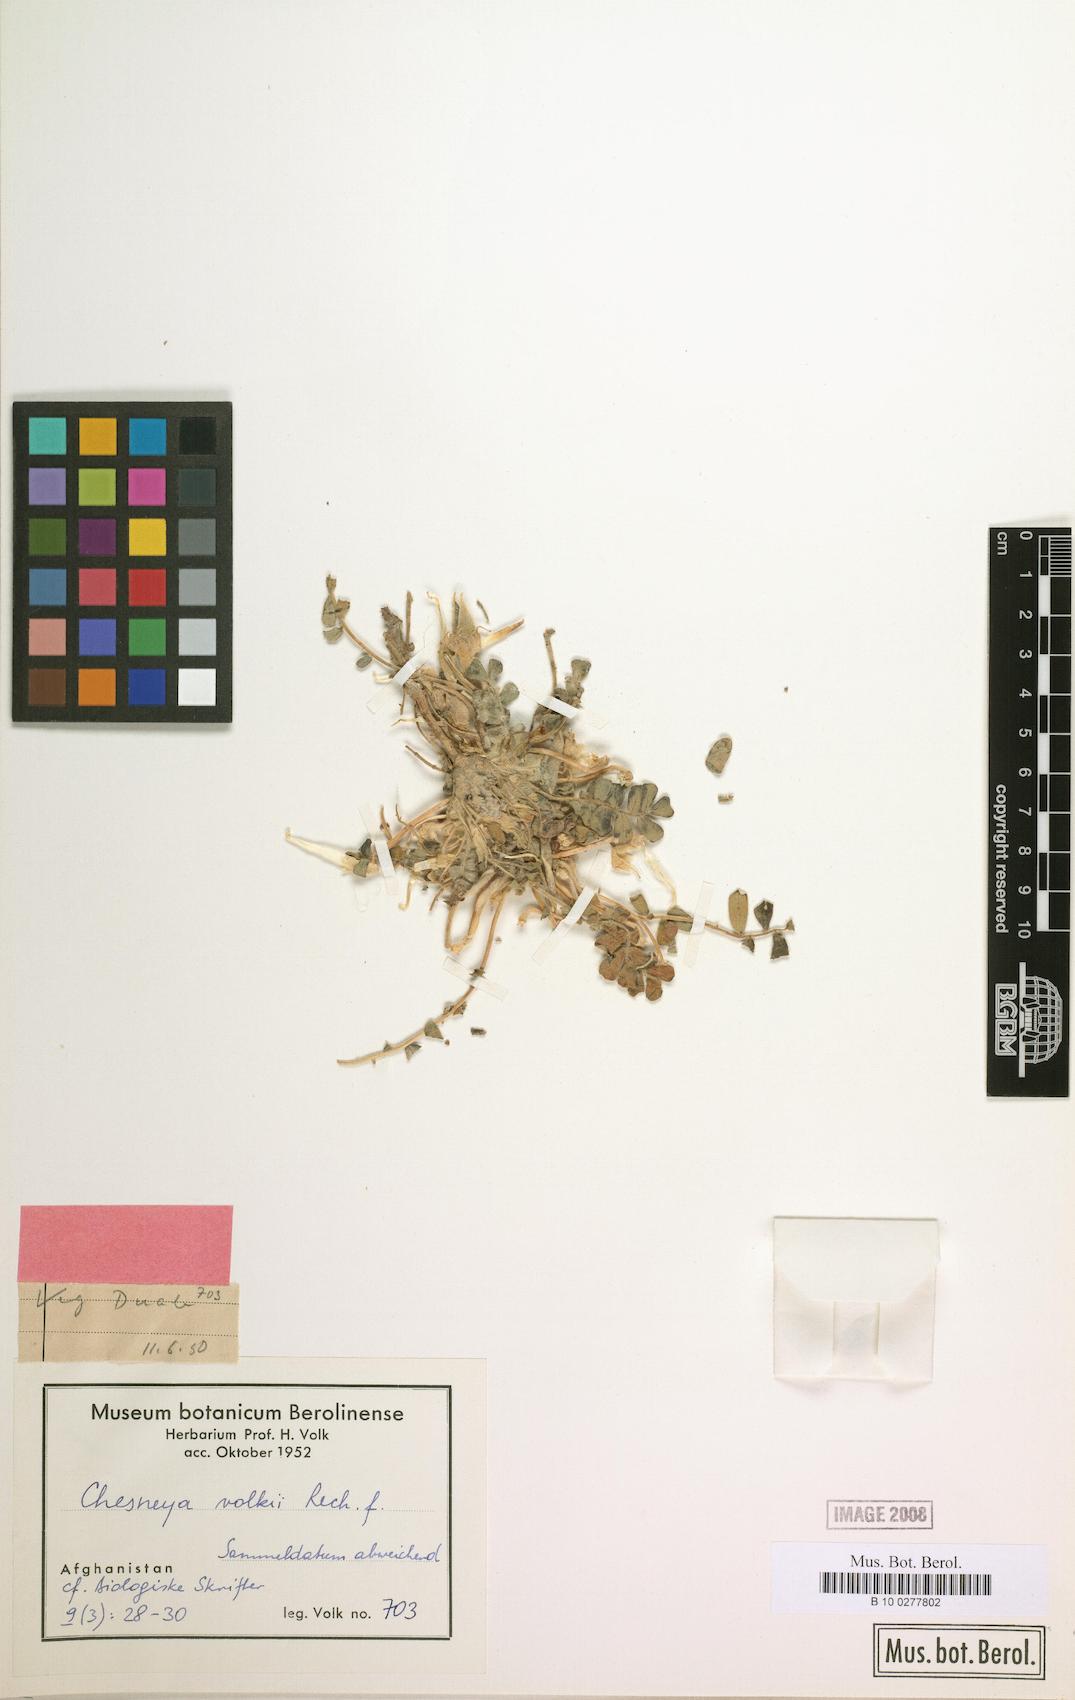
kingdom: Plantae
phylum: Tracheophyta
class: Magnoliopsida
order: Fabales
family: Fabaceae
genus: Chesneya
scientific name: Chesneya volkii
